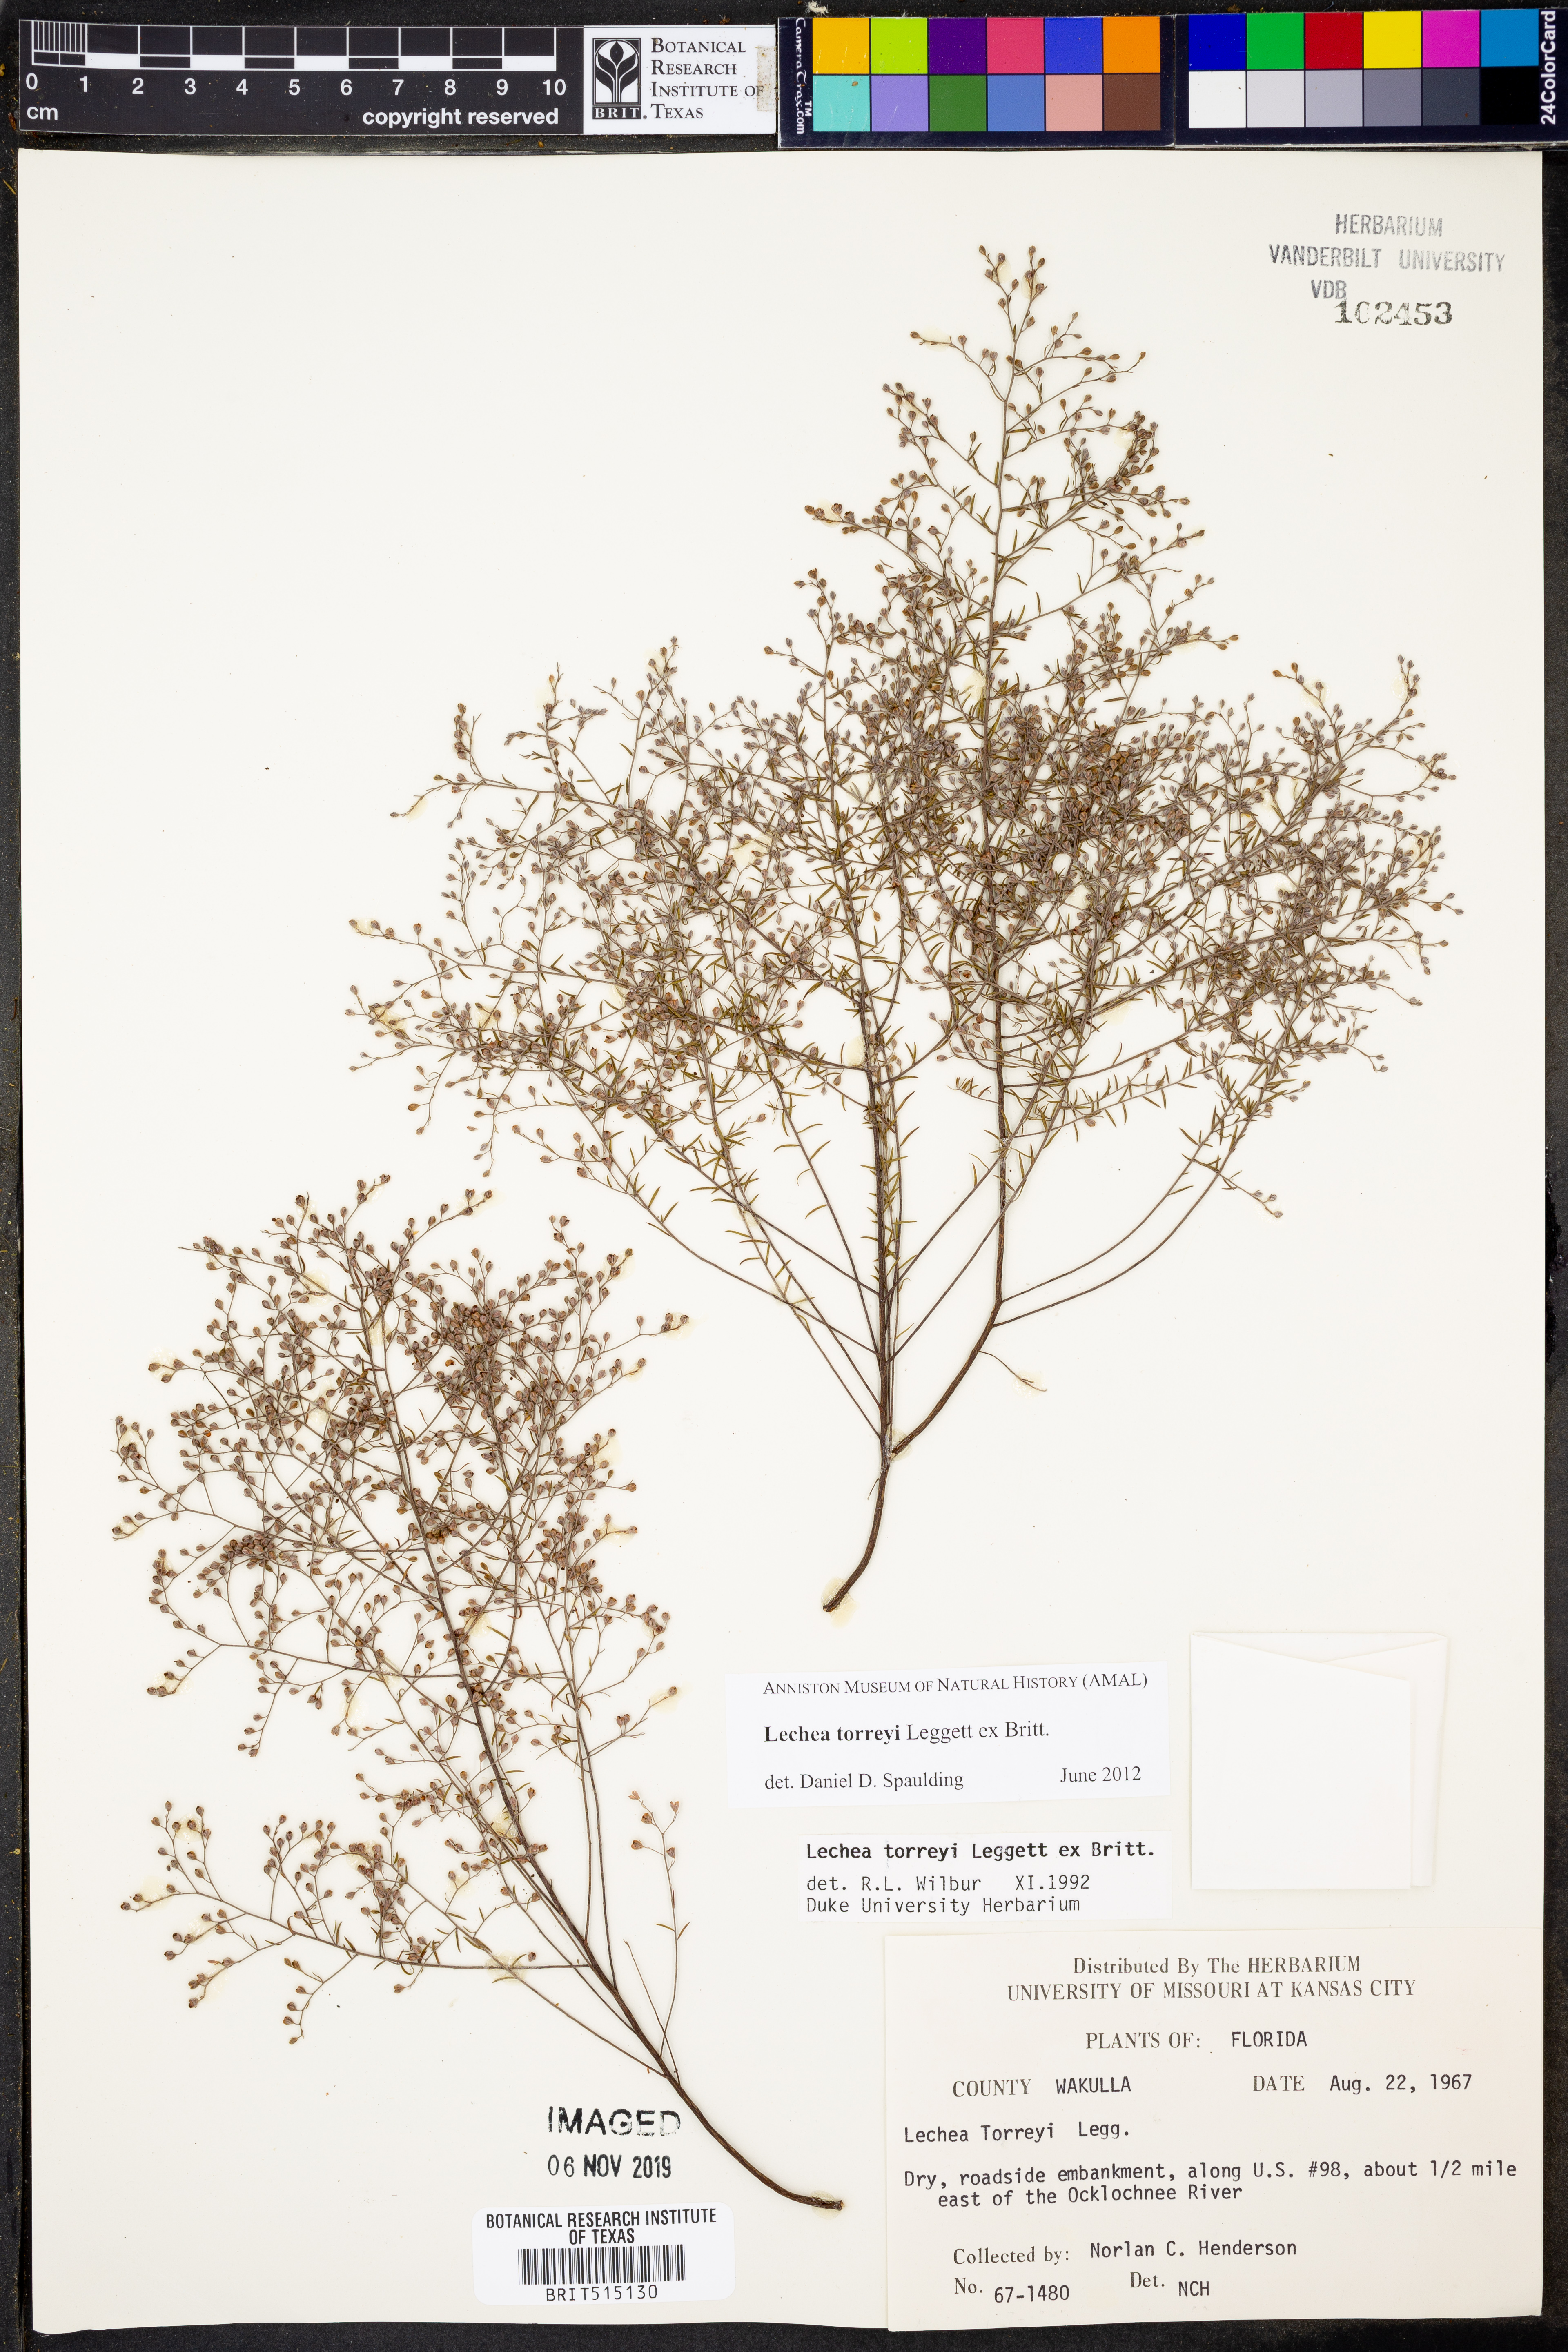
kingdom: Plantae
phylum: Tracheophyta
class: Magnoliopsida
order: Malvales
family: Cistaceae
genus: Lechea
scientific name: Lechea torreyi
